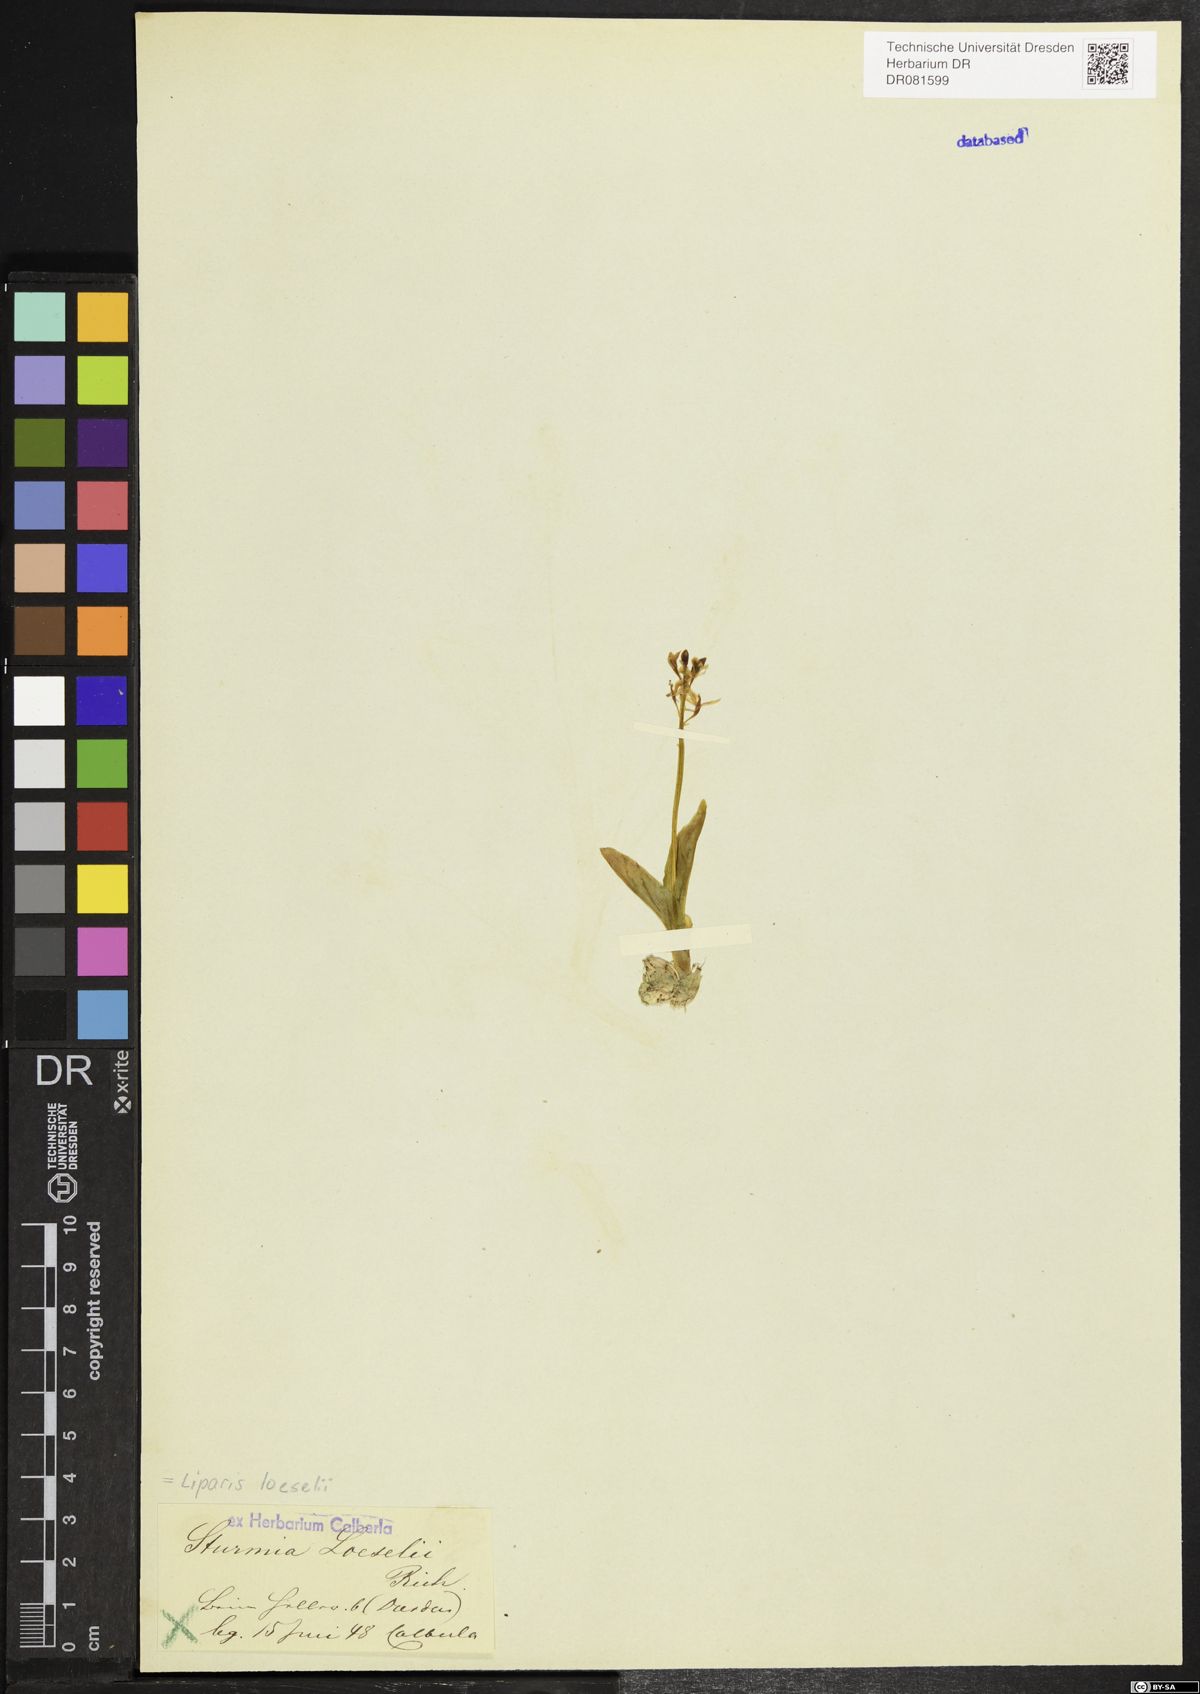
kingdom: Animalia
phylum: Arthropoda
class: Insecta
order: Coleoptera
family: Curculionidae
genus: Liparis
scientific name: Liparis loeselii
